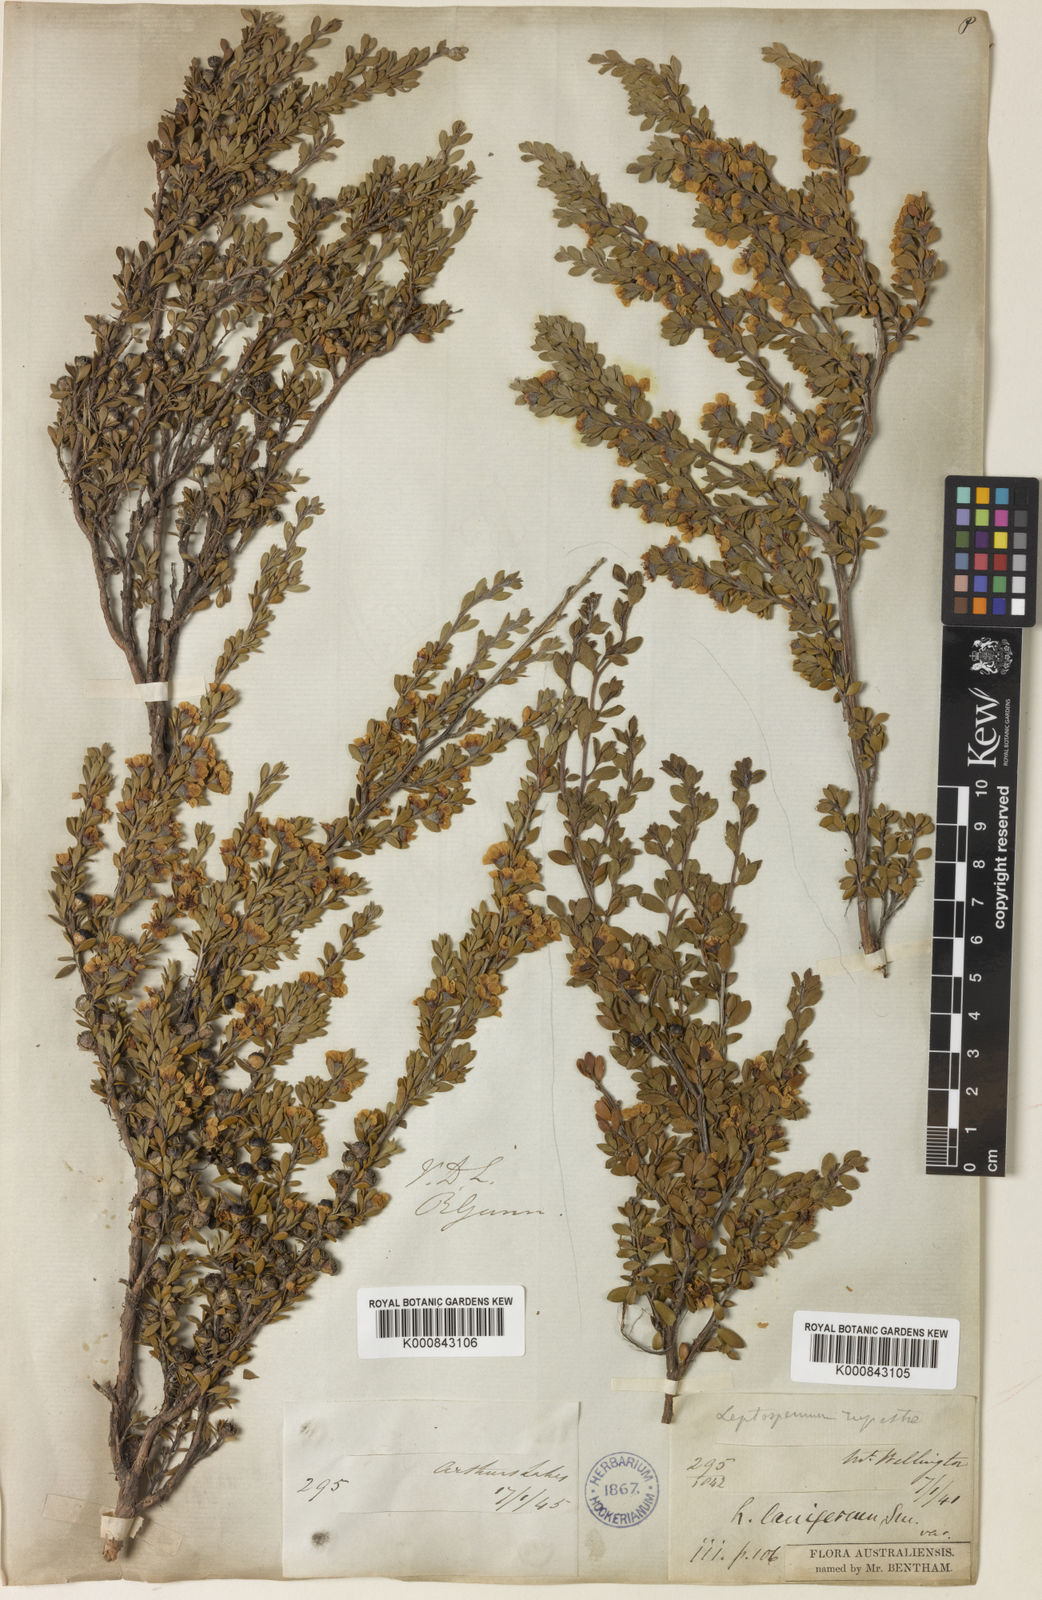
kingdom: Plantae
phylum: Tracheophyta
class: Magnoliopsida
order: Myrtales
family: Myrtaceae
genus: Leptospermum
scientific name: Leptospermum rupestre
